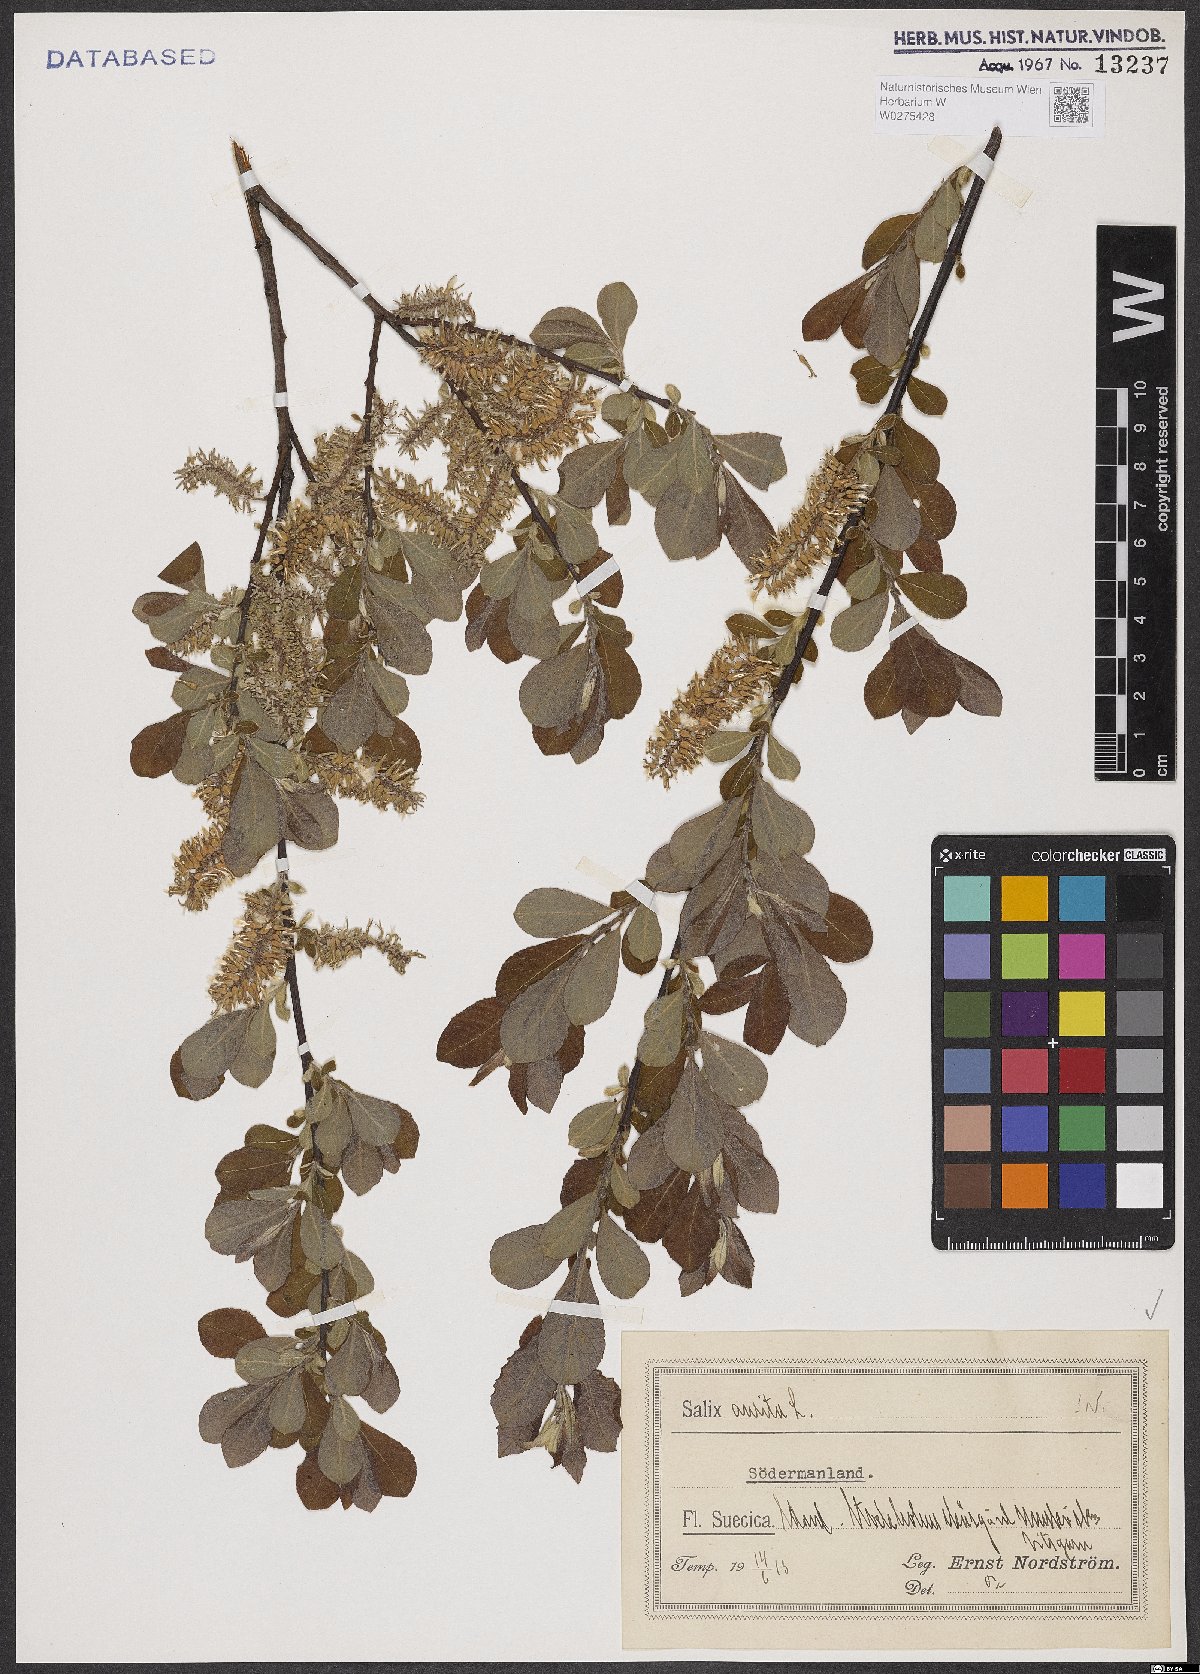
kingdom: Plantae
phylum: Tracheophyta
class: Magnoliopsida
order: Malpighiales
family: Salicaceae
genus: Salix
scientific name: Salix aurita
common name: Eared willow
